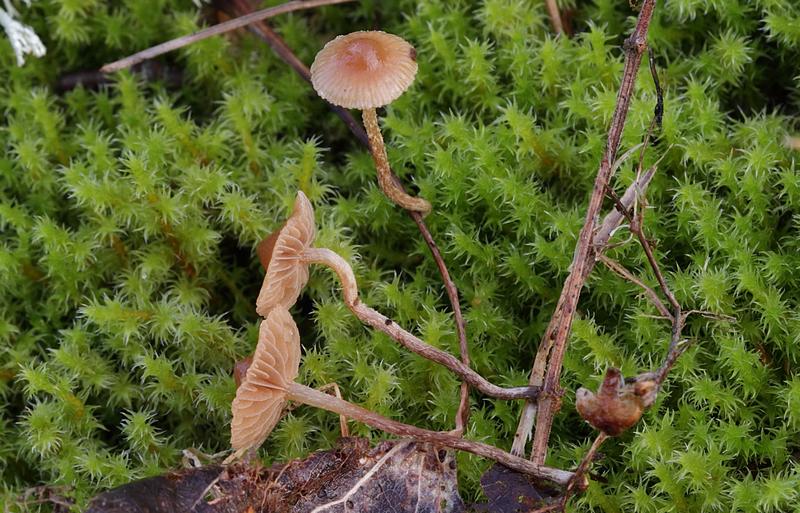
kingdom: Fungi
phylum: Basidiomycota
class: Agaricomycetes
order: Agaricales
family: Strophariaceae
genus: Deconica
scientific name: Deconica inquilina
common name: græs-stråhat
